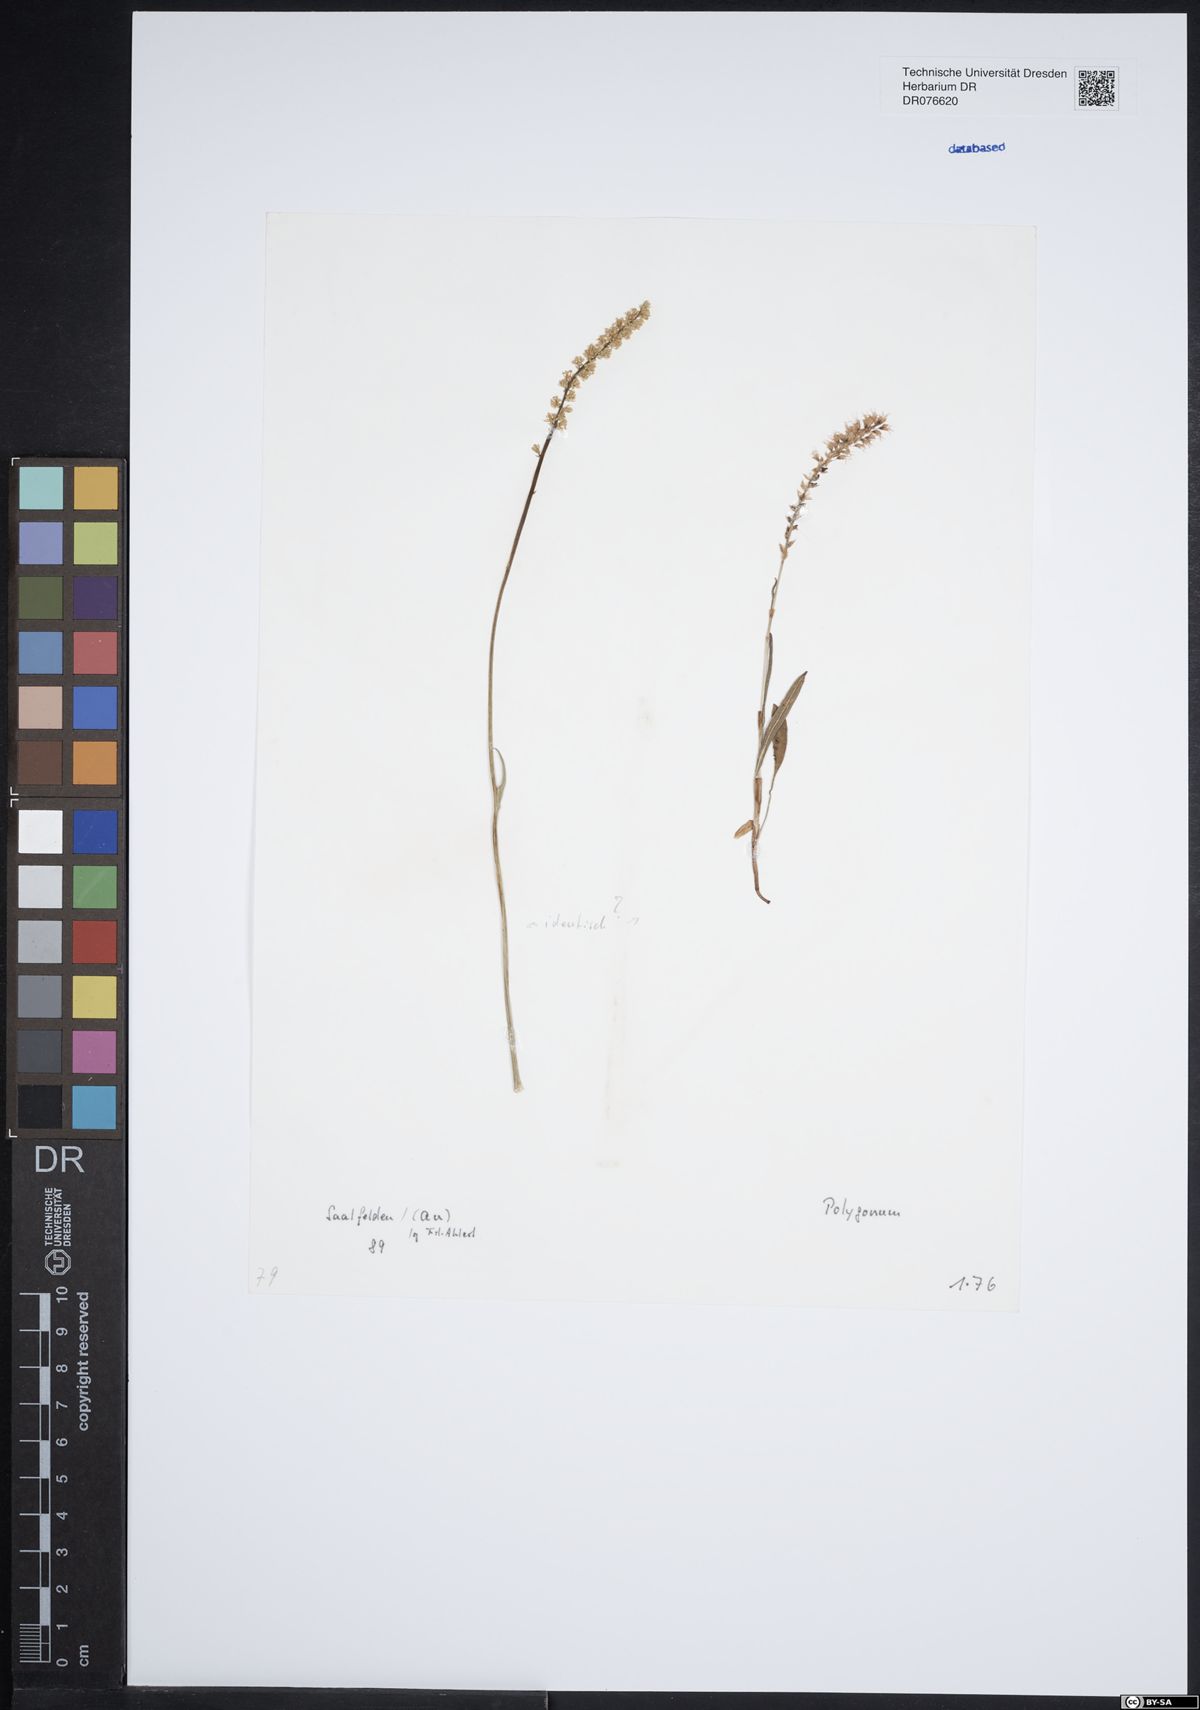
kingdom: Plantae
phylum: Tracheophyta
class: Magnoliopsida
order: Caryophyllales
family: Polygonaceae
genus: Polygonum
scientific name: Polygonum
